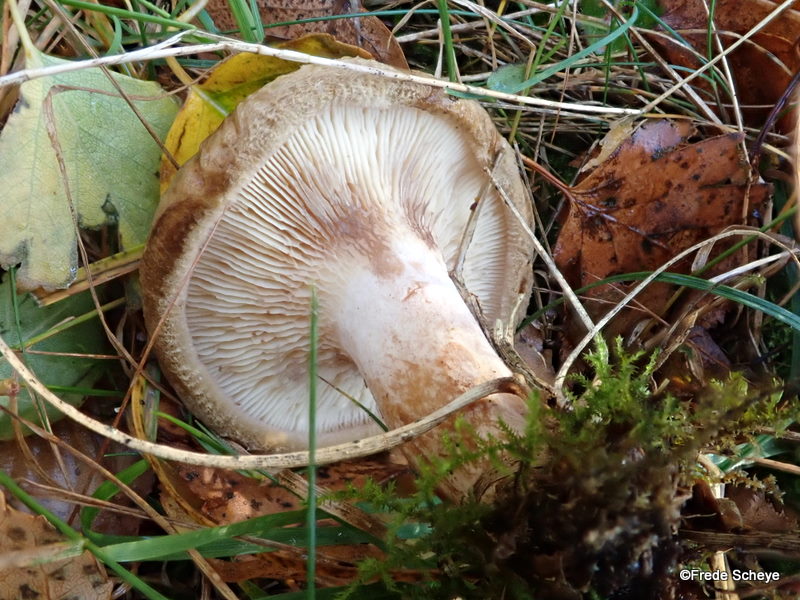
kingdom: Fungi
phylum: Basidiomycota
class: Agaricomycetes
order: Boletales
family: Paxillaceae
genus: Paxillus
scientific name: Paxillus involutus
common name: almindelig netbladhat
